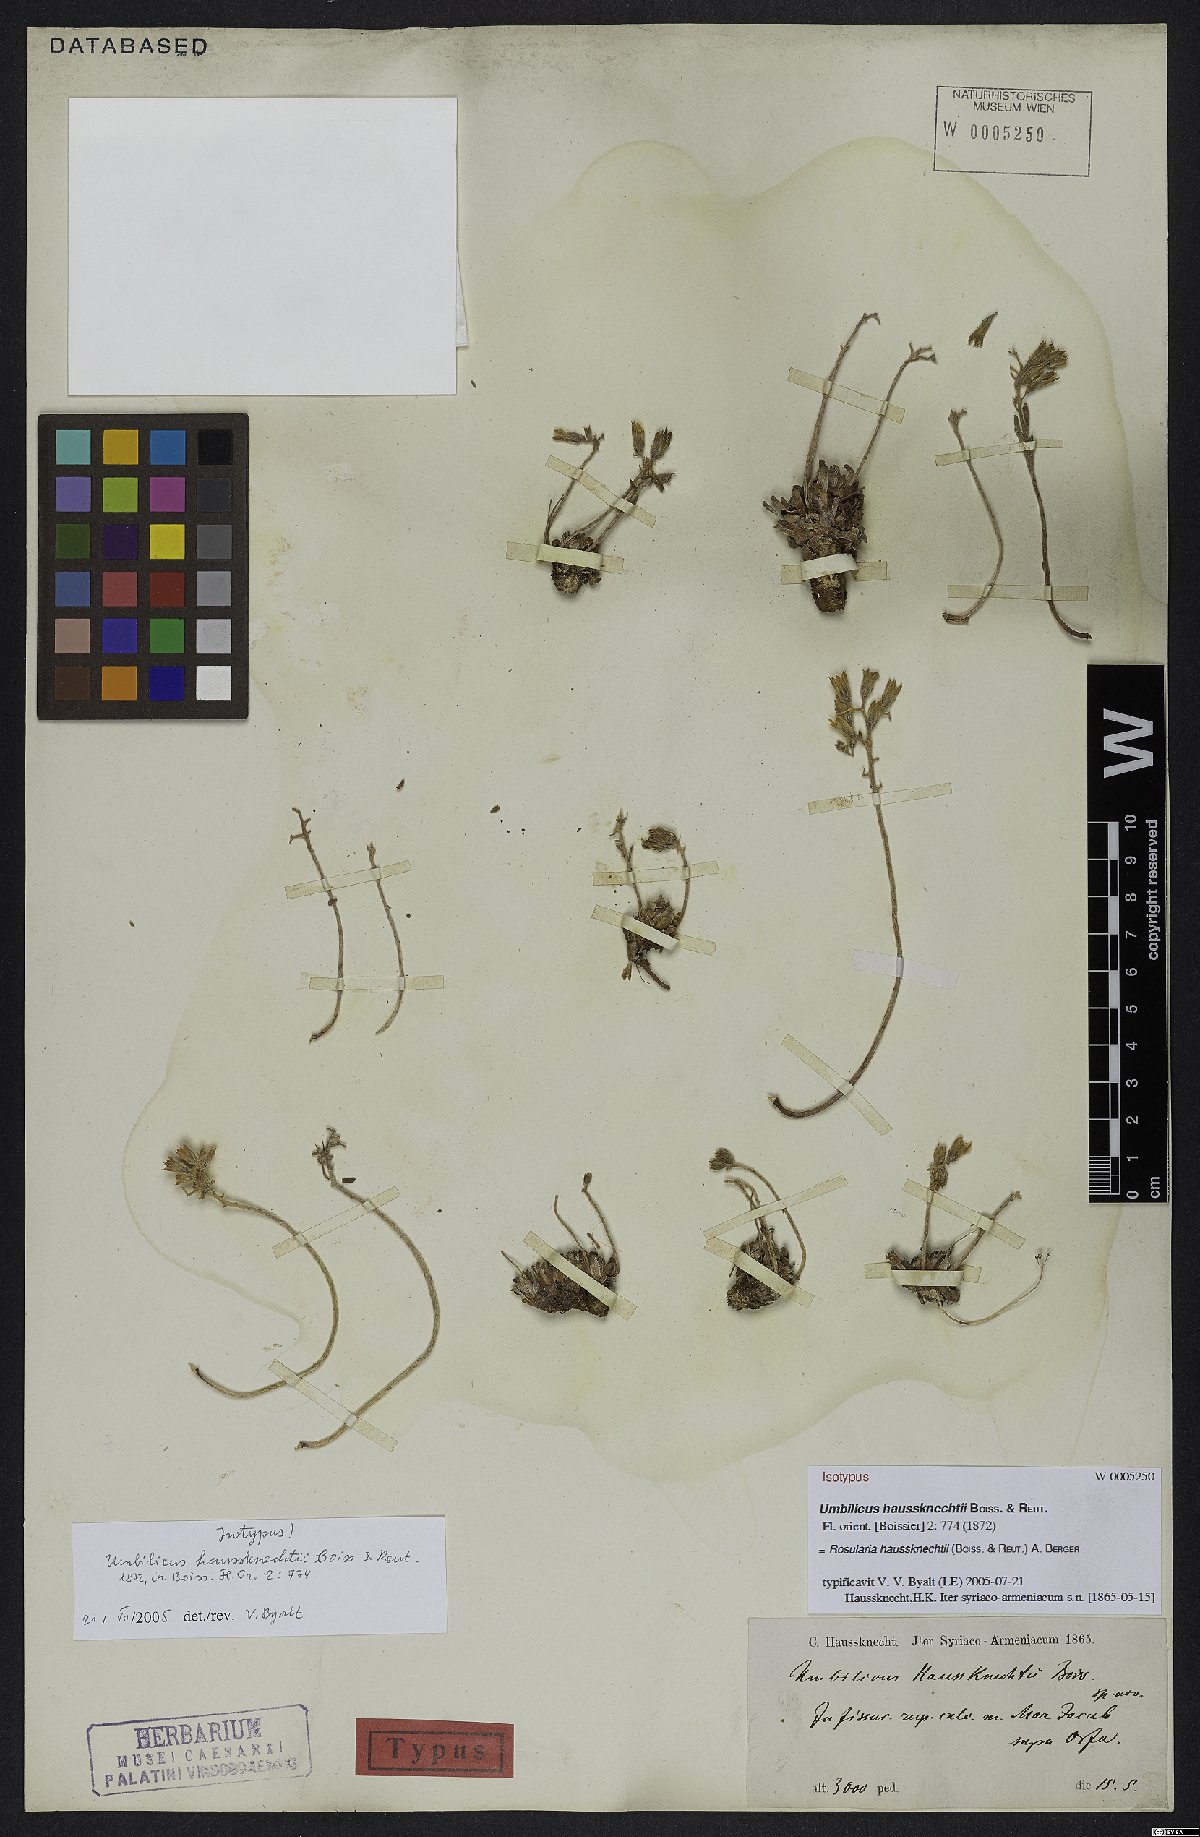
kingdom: Plantae
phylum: Tracheophyta
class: Magnoliopsida
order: Saxifragales
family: Crassulaceae
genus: Rosularia
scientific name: Rosularia haussknechtii
